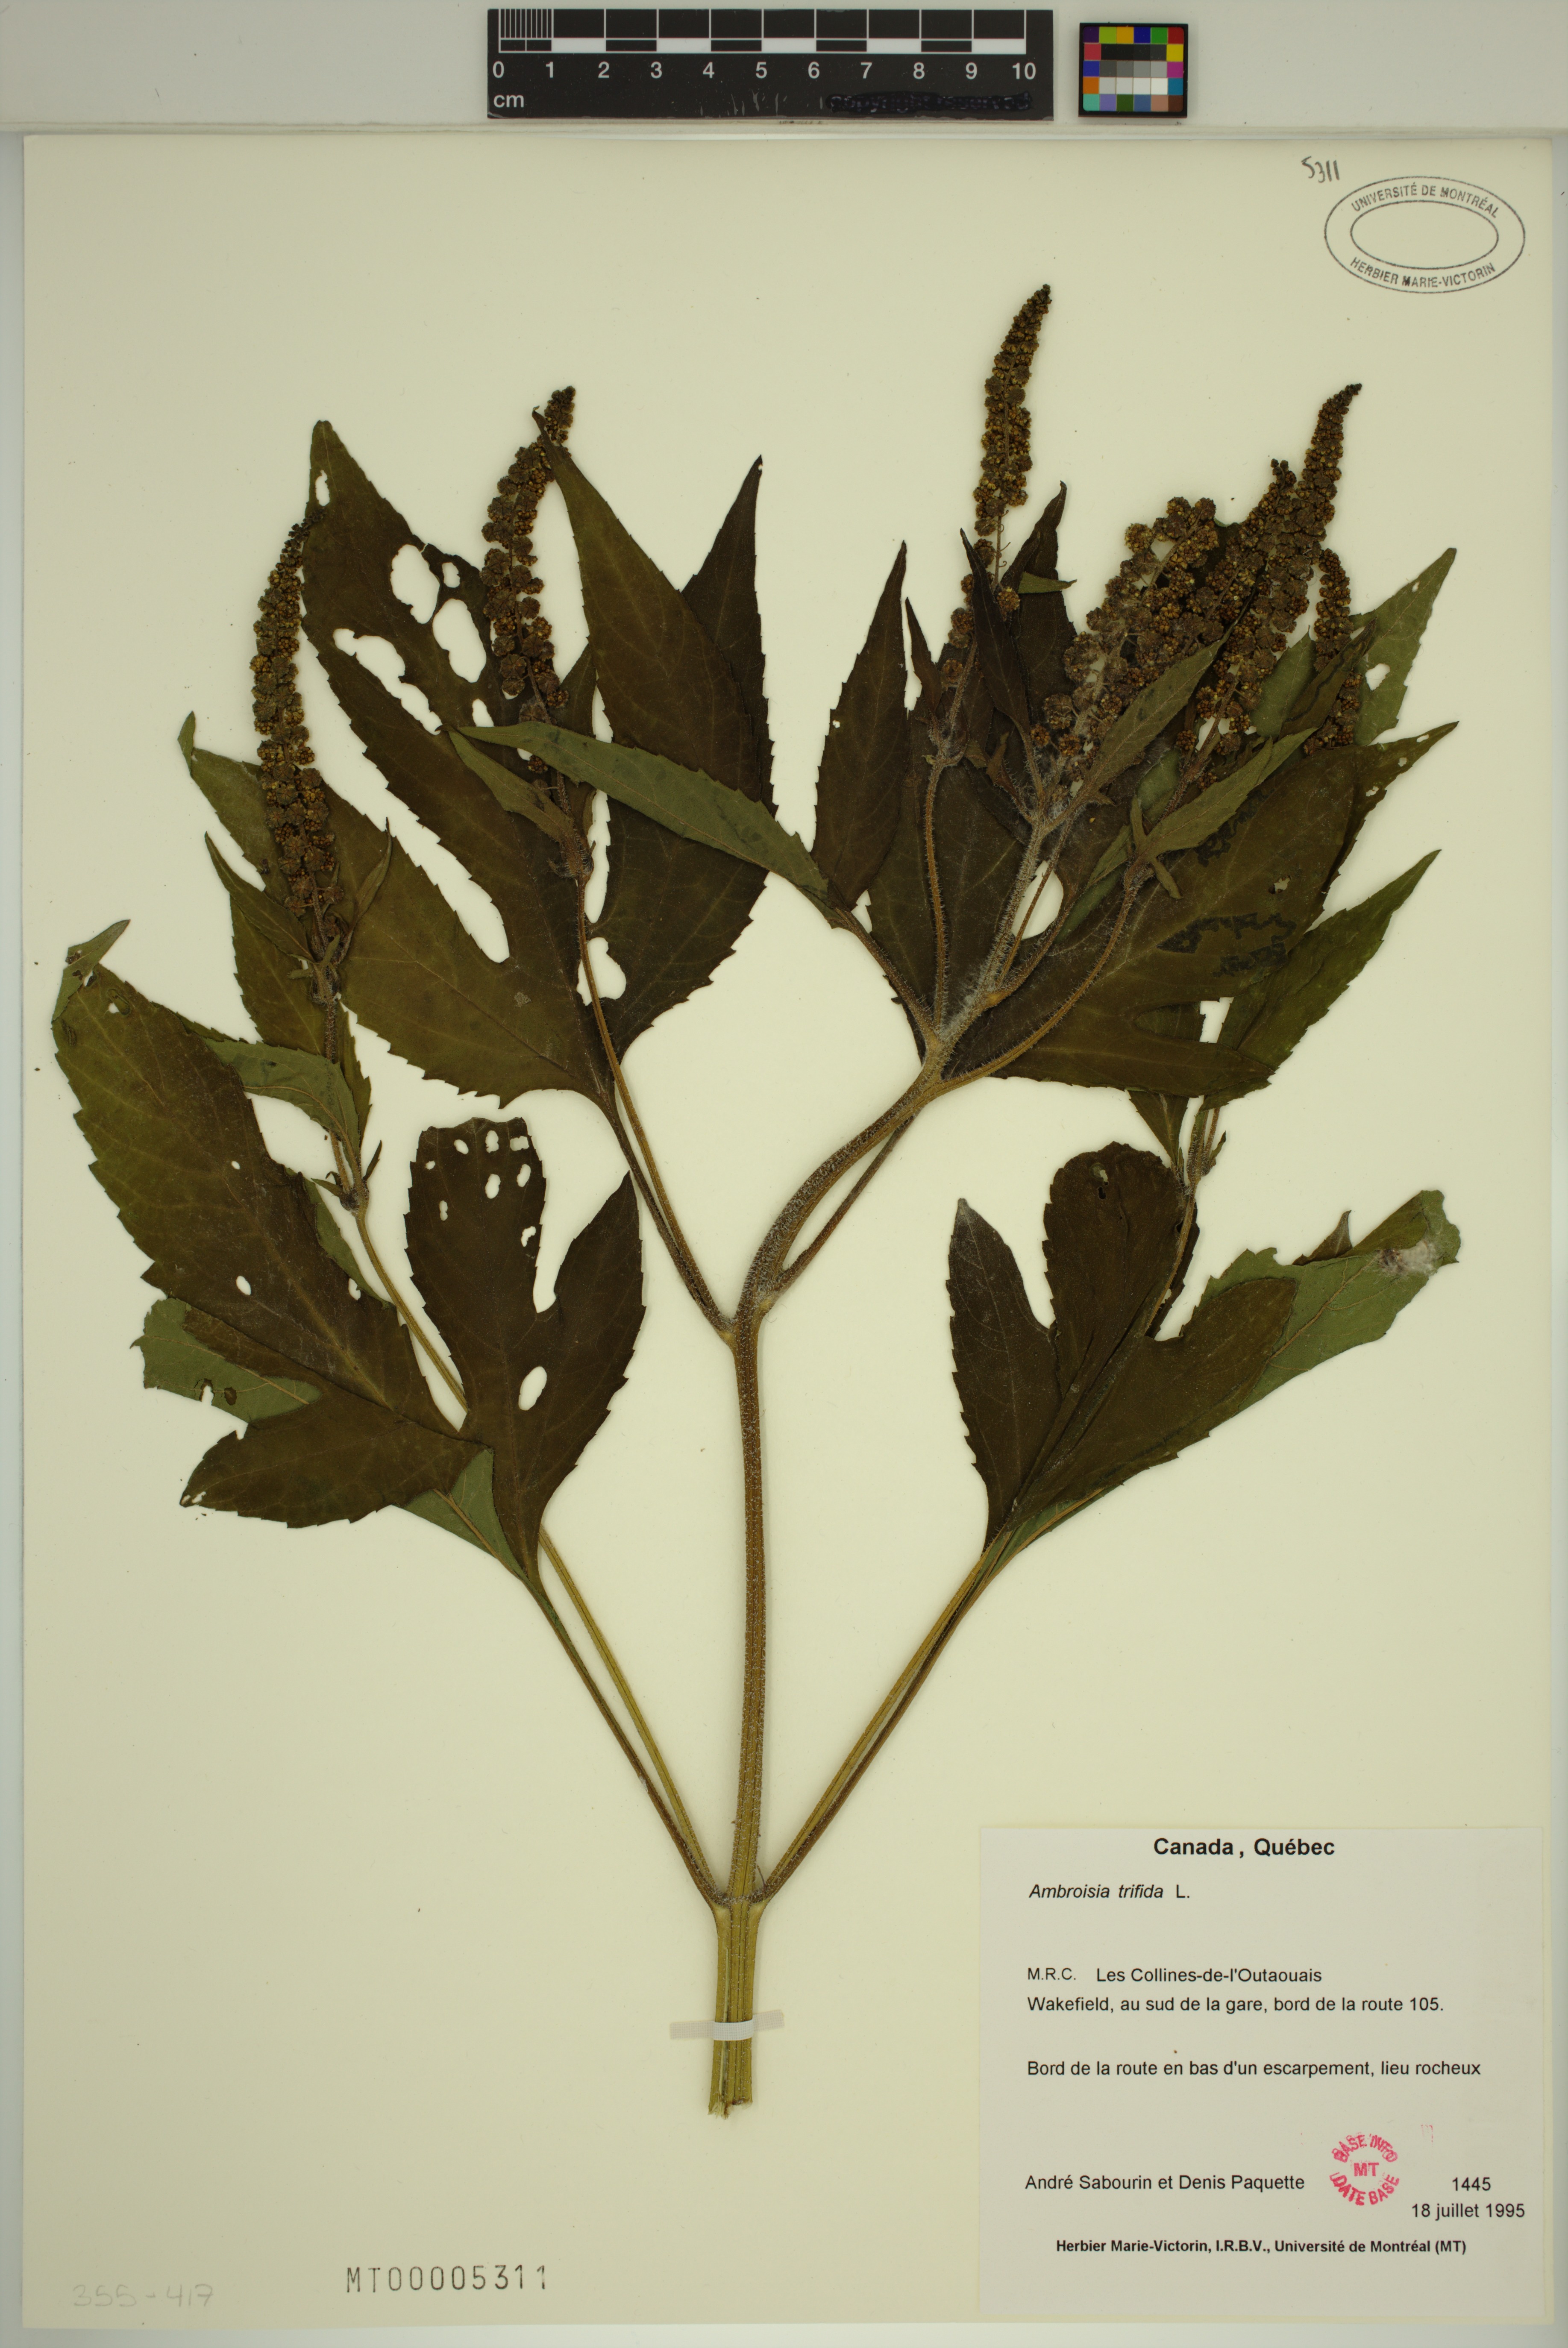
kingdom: Plantae
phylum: Tracheophyta
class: Magnoliopsida
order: Asterales
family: Asteraceae
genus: Ambrosia
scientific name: Ambrosia trifida
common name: Giant ragweed
